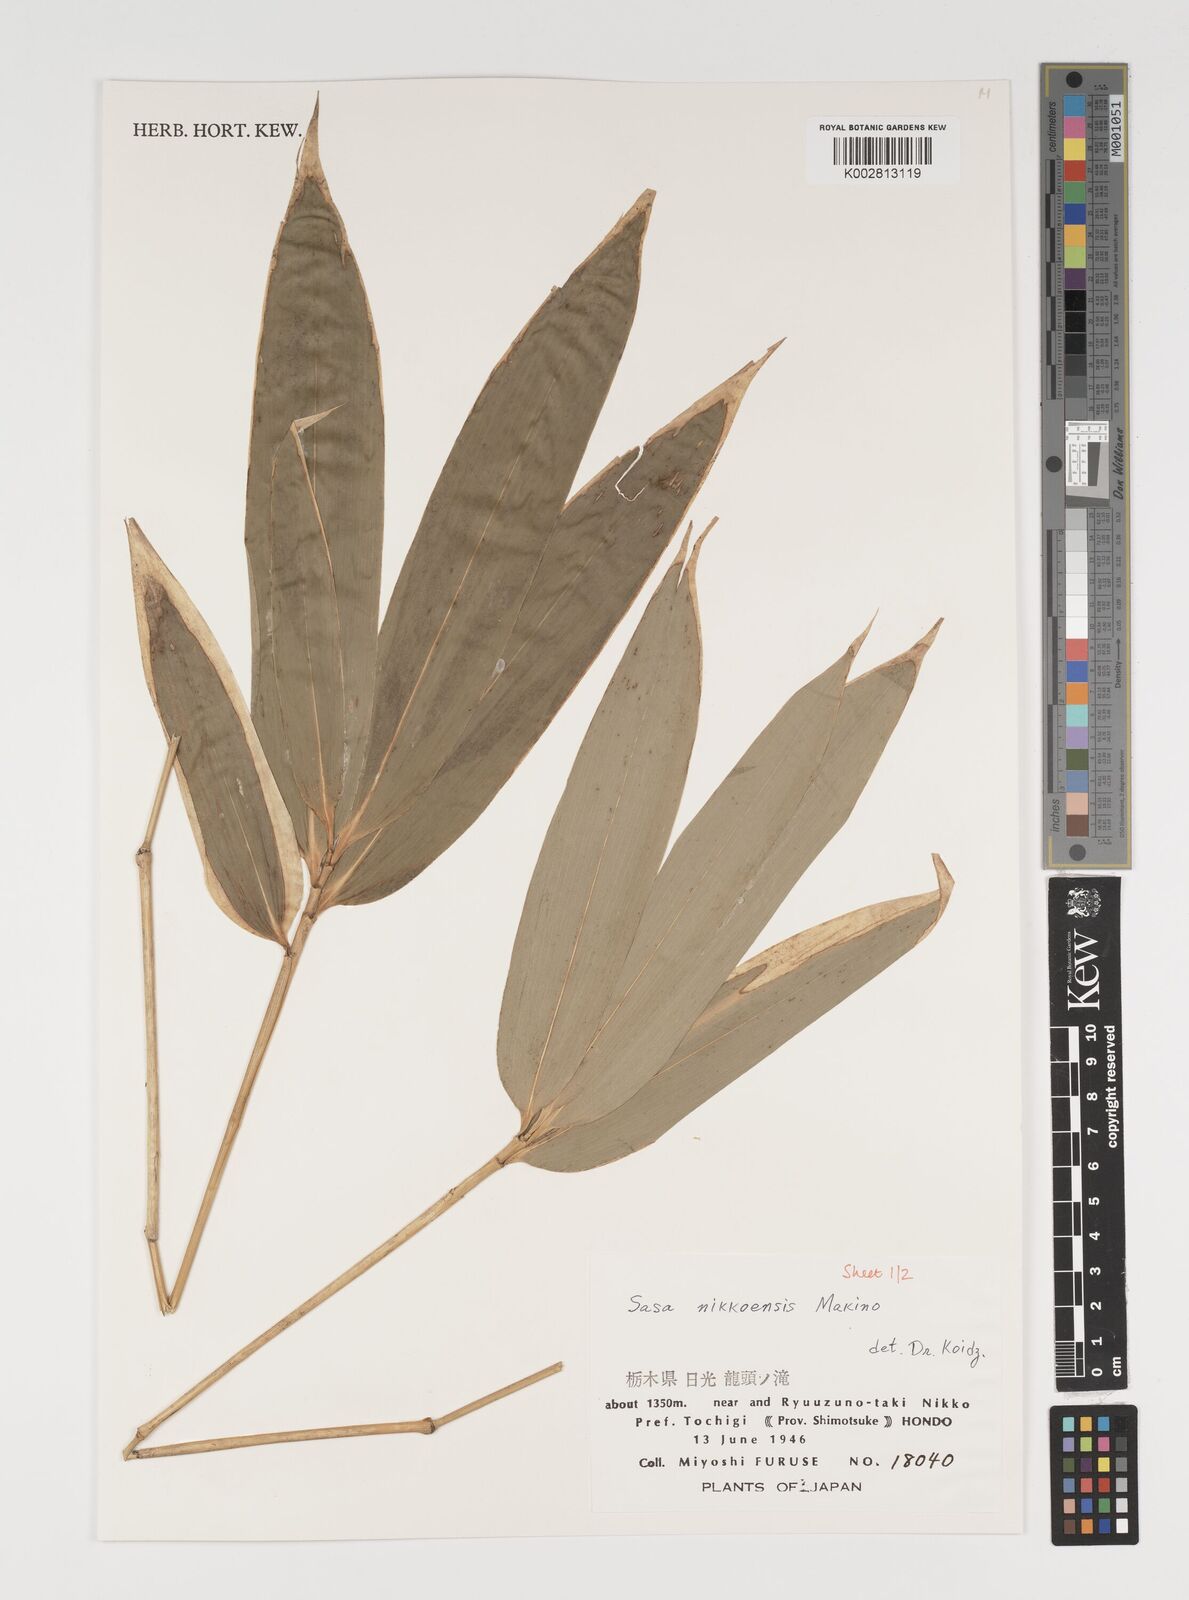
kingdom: Plantae
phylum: Tracheophyta
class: Liliopsida
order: Poales
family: Poaceae
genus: Sasa
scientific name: Sasa chartacea
